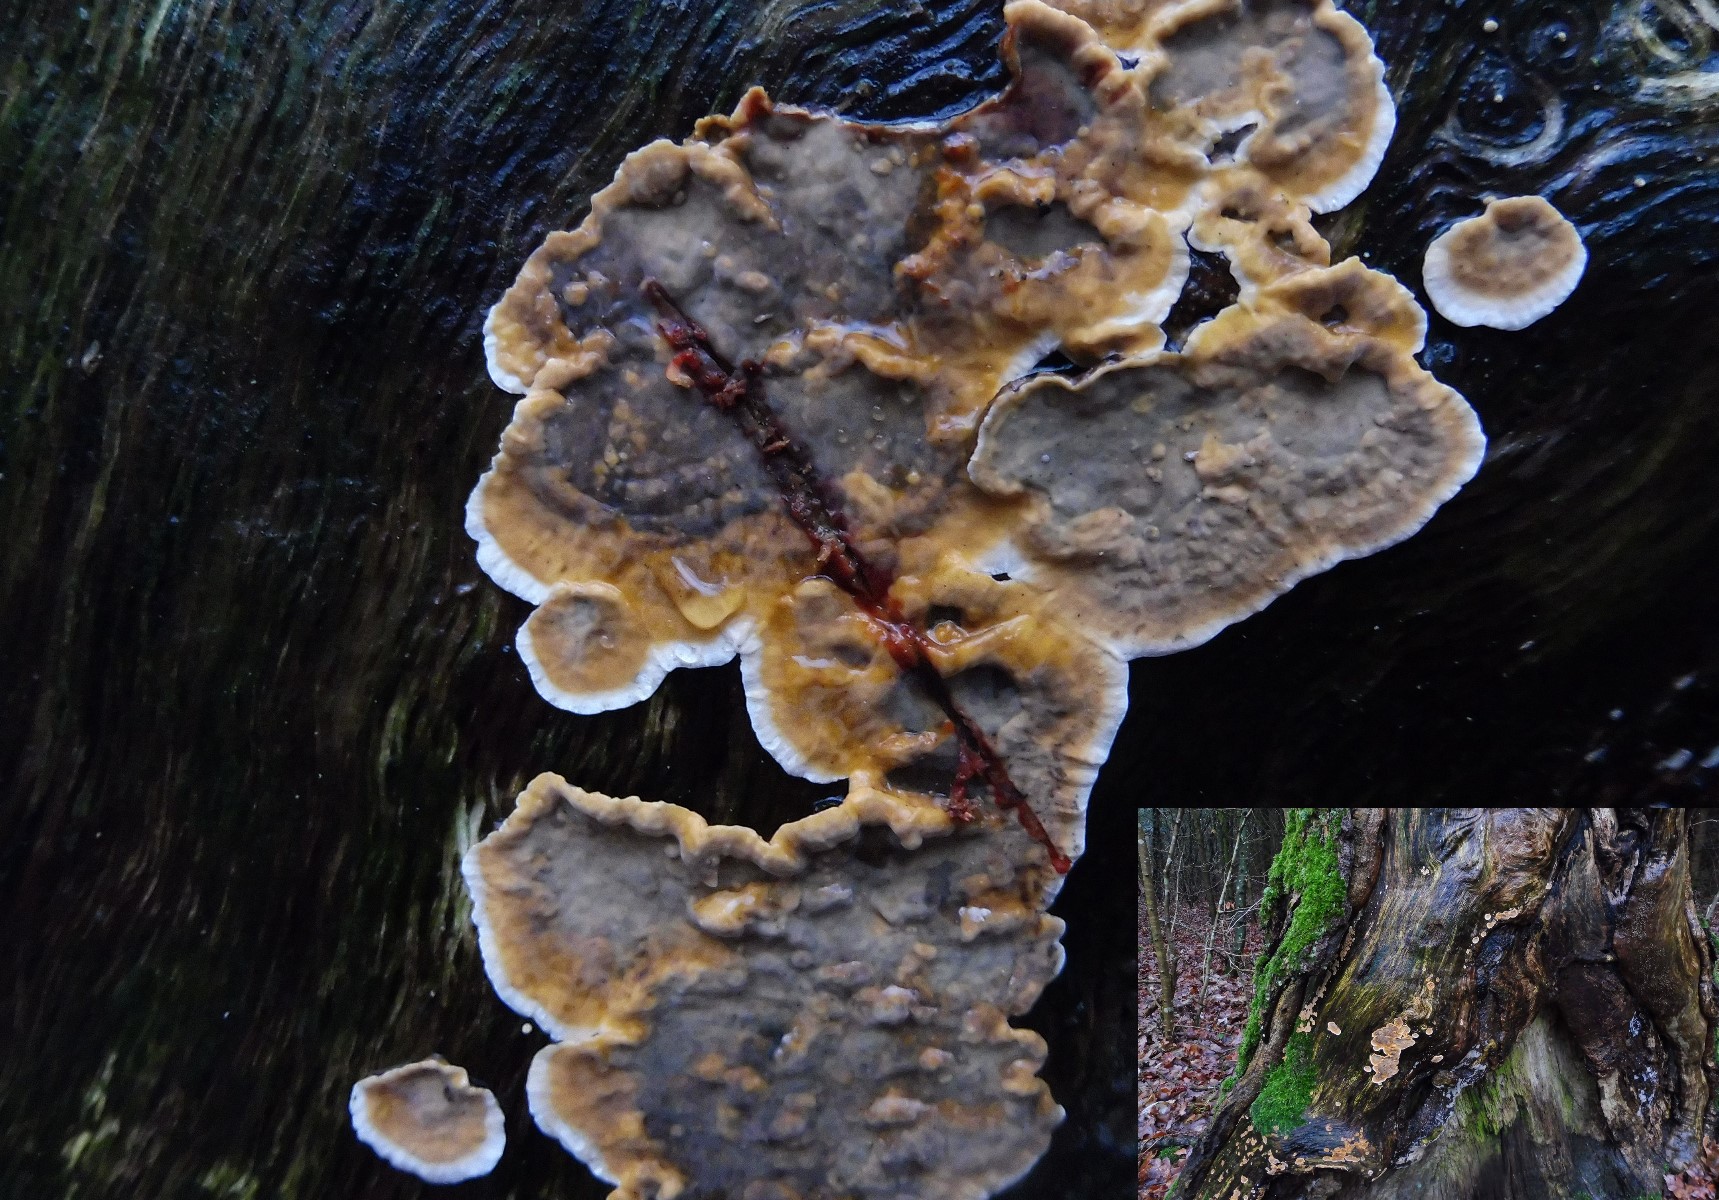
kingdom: Fungi
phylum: Basidiomycota
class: Agaricomycetes
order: Russulales
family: Stereaceae
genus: Stereum
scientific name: Stereum gausapatum
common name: tynd lædersvamp
